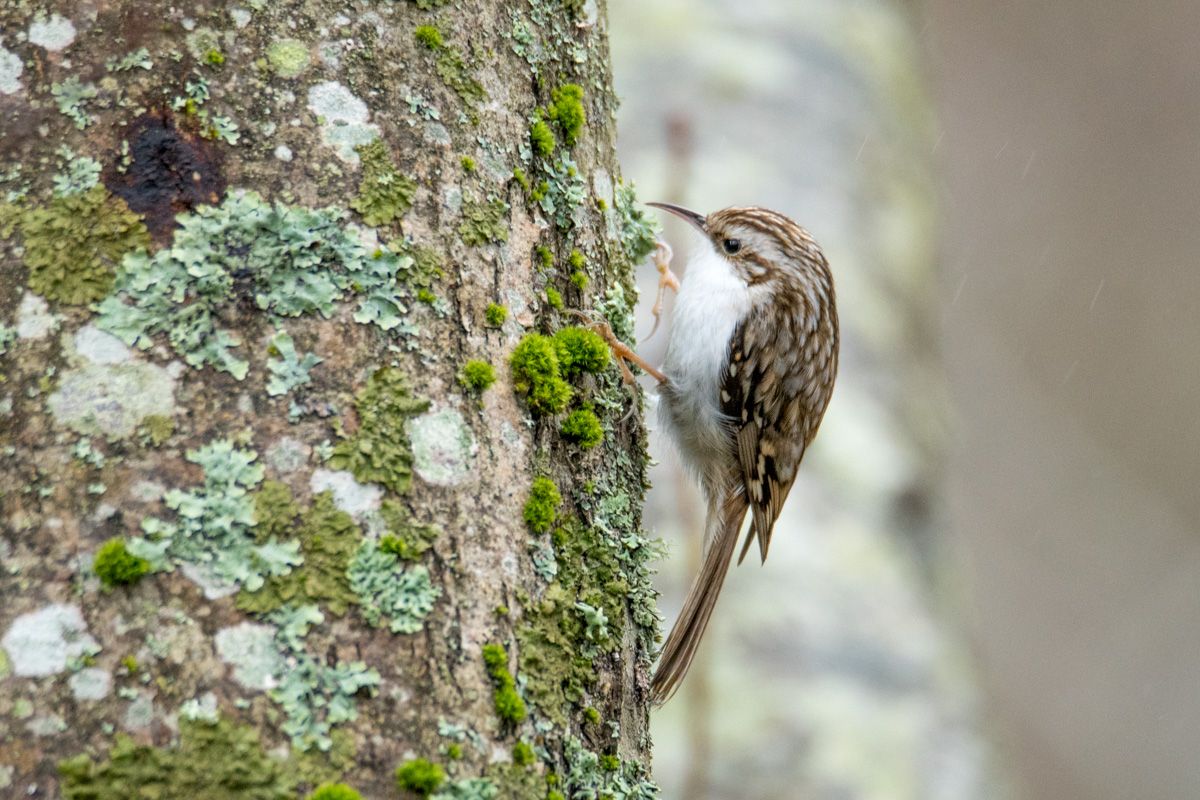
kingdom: Animalia
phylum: Chordata
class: Aves
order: Passeriformes
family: Certhiidae
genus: Certhia
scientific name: Certhia familiaris
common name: Eurasian treecreeper
